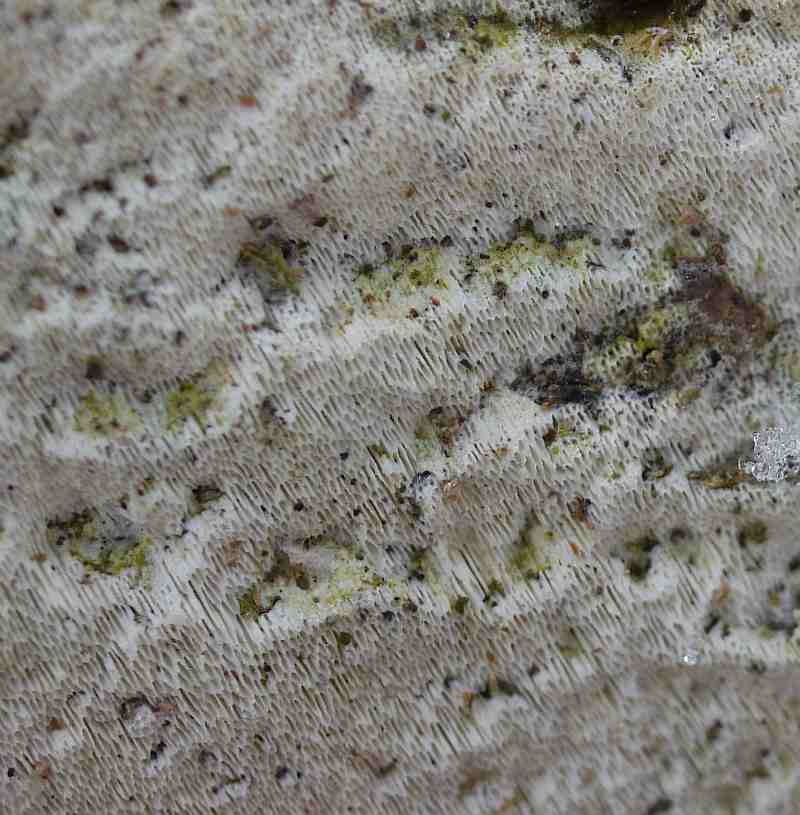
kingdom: Fungi
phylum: Basidiomycota
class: Agaricomycetes
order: Hymenochaetales
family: Rickenellaceae
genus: Sidera
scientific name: Sidera vulgaris
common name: fin flødeporesvamp
